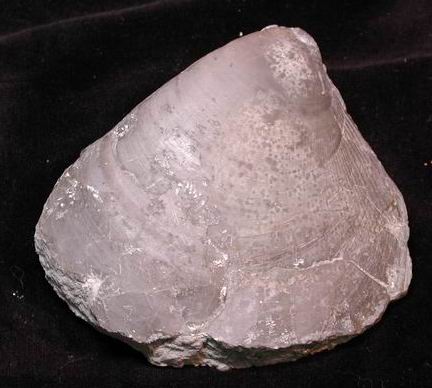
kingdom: Animalia
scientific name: Animalia
